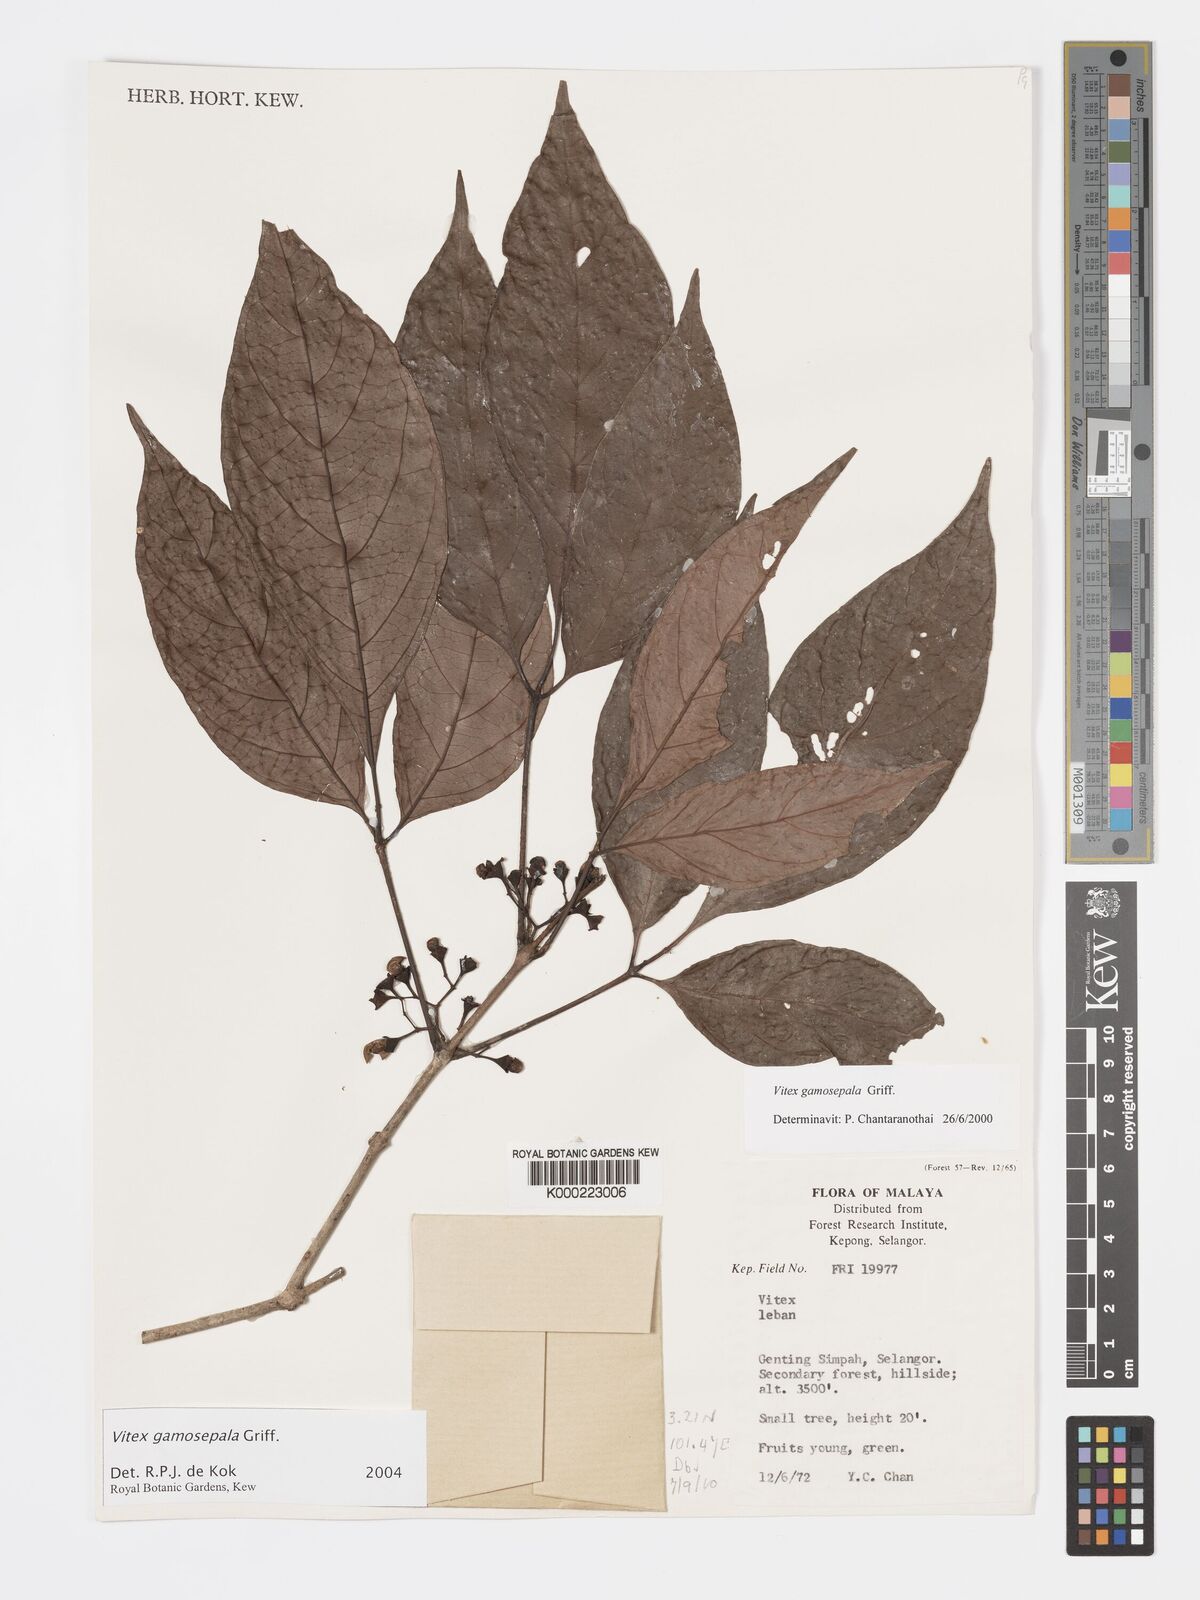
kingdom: Plantae
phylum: Tracheophyta
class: Magnoliopsida
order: Lamiales
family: Lamiaceae
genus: Vitex
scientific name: Vitex gamosepala
